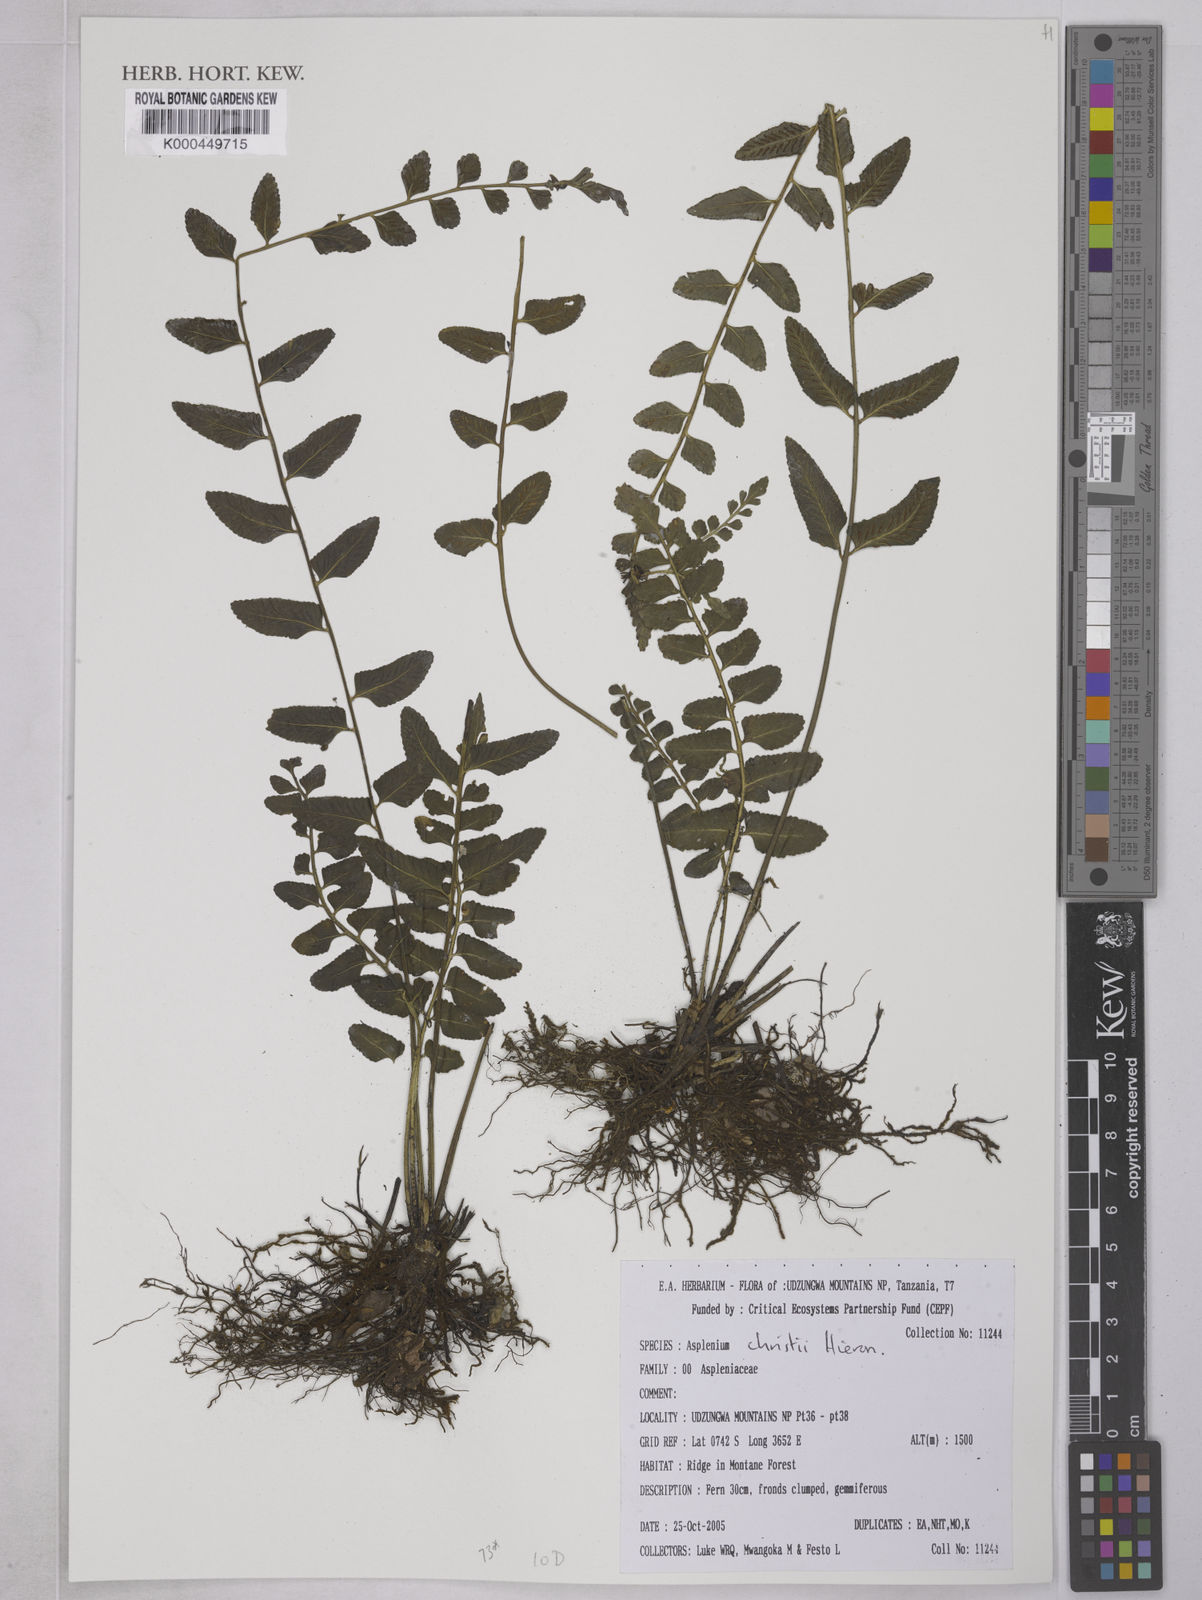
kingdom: Plantae
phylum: Tracheophyta
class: Polypodiopsida
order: Polypodiales
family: Aspleniaceae
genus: Asplenium
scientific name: Asplenium christii
